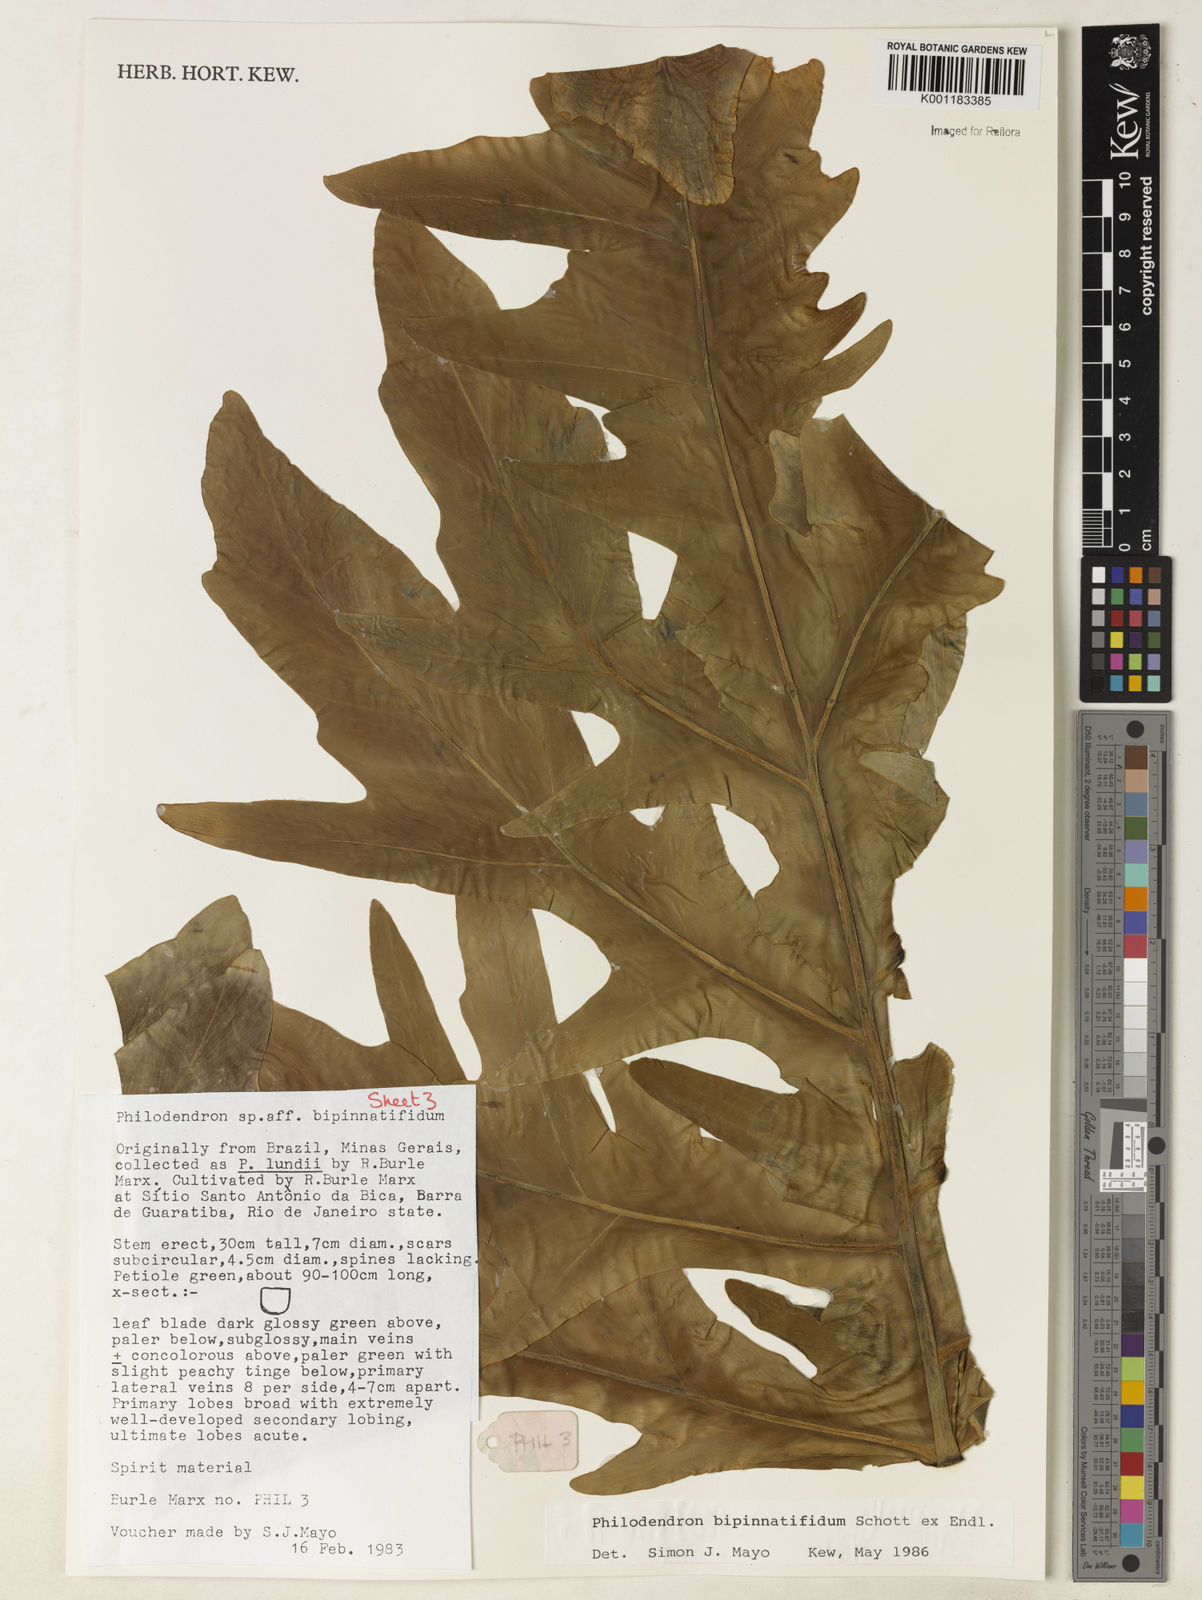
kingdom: Plantae
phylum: Tracheophyta
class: Liliopsida
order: Alismatales
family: Araceae
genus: Philodendron
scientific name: Philodendron
